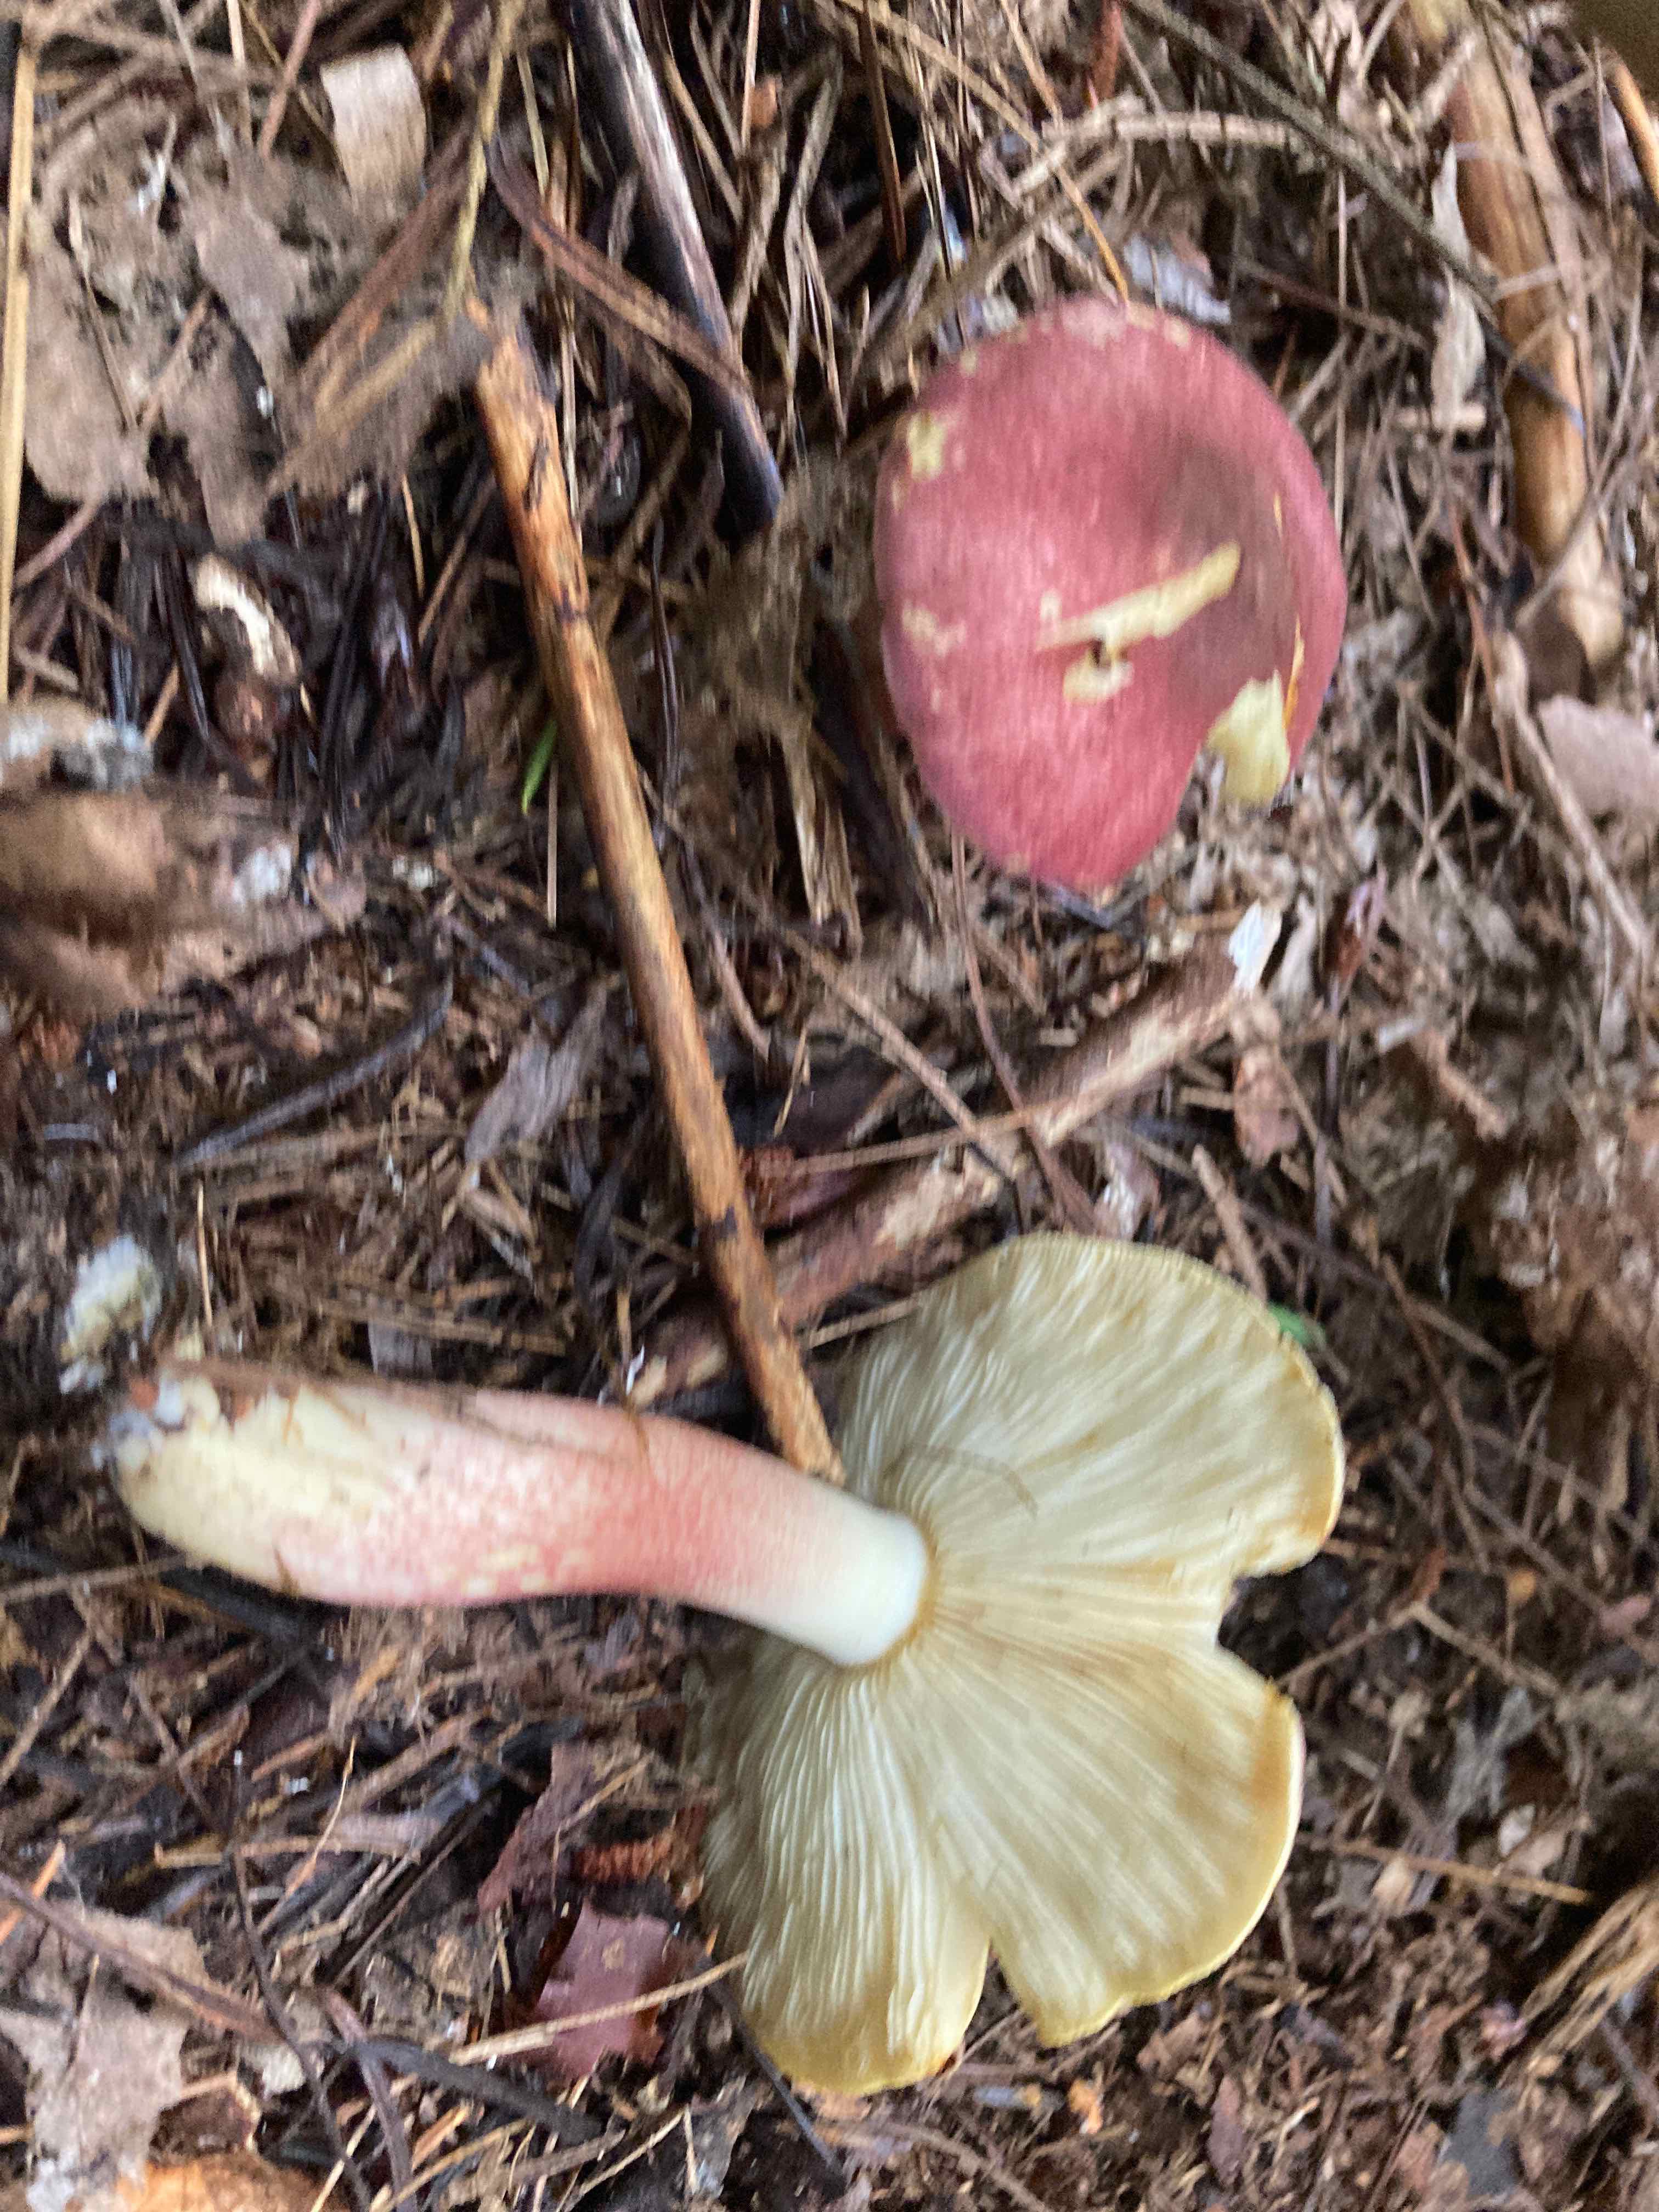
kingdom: Fungi
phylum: Basidiomycota
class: Agaricomycetes
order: Agaricales
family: Tricholomataceae
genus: Tricholomopsis
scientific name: Tricholomopsis rutilans
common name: purpur-væbnerhat
